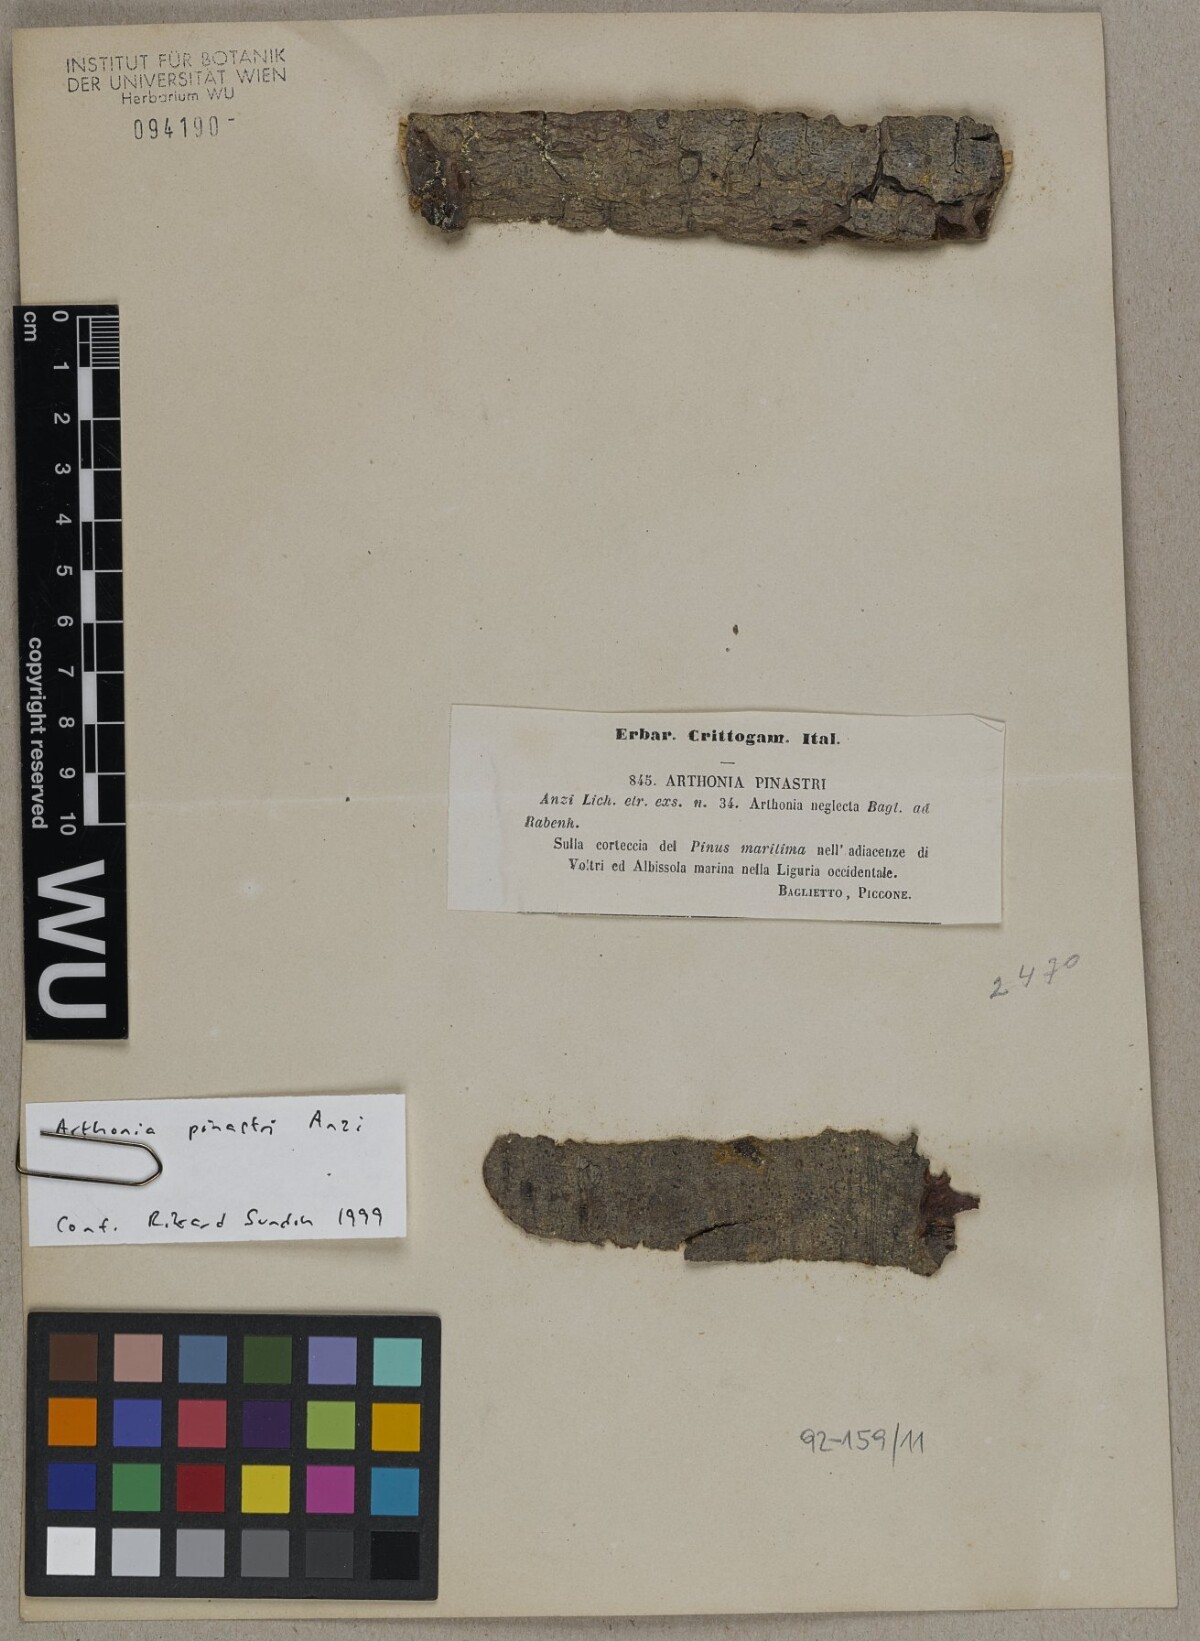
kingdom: Fungi
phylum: Ascomycota
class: Arthoniomycetes
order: Arthoniales
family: Arthoniaceae
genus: Naevia
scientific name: Naevia pinastri
